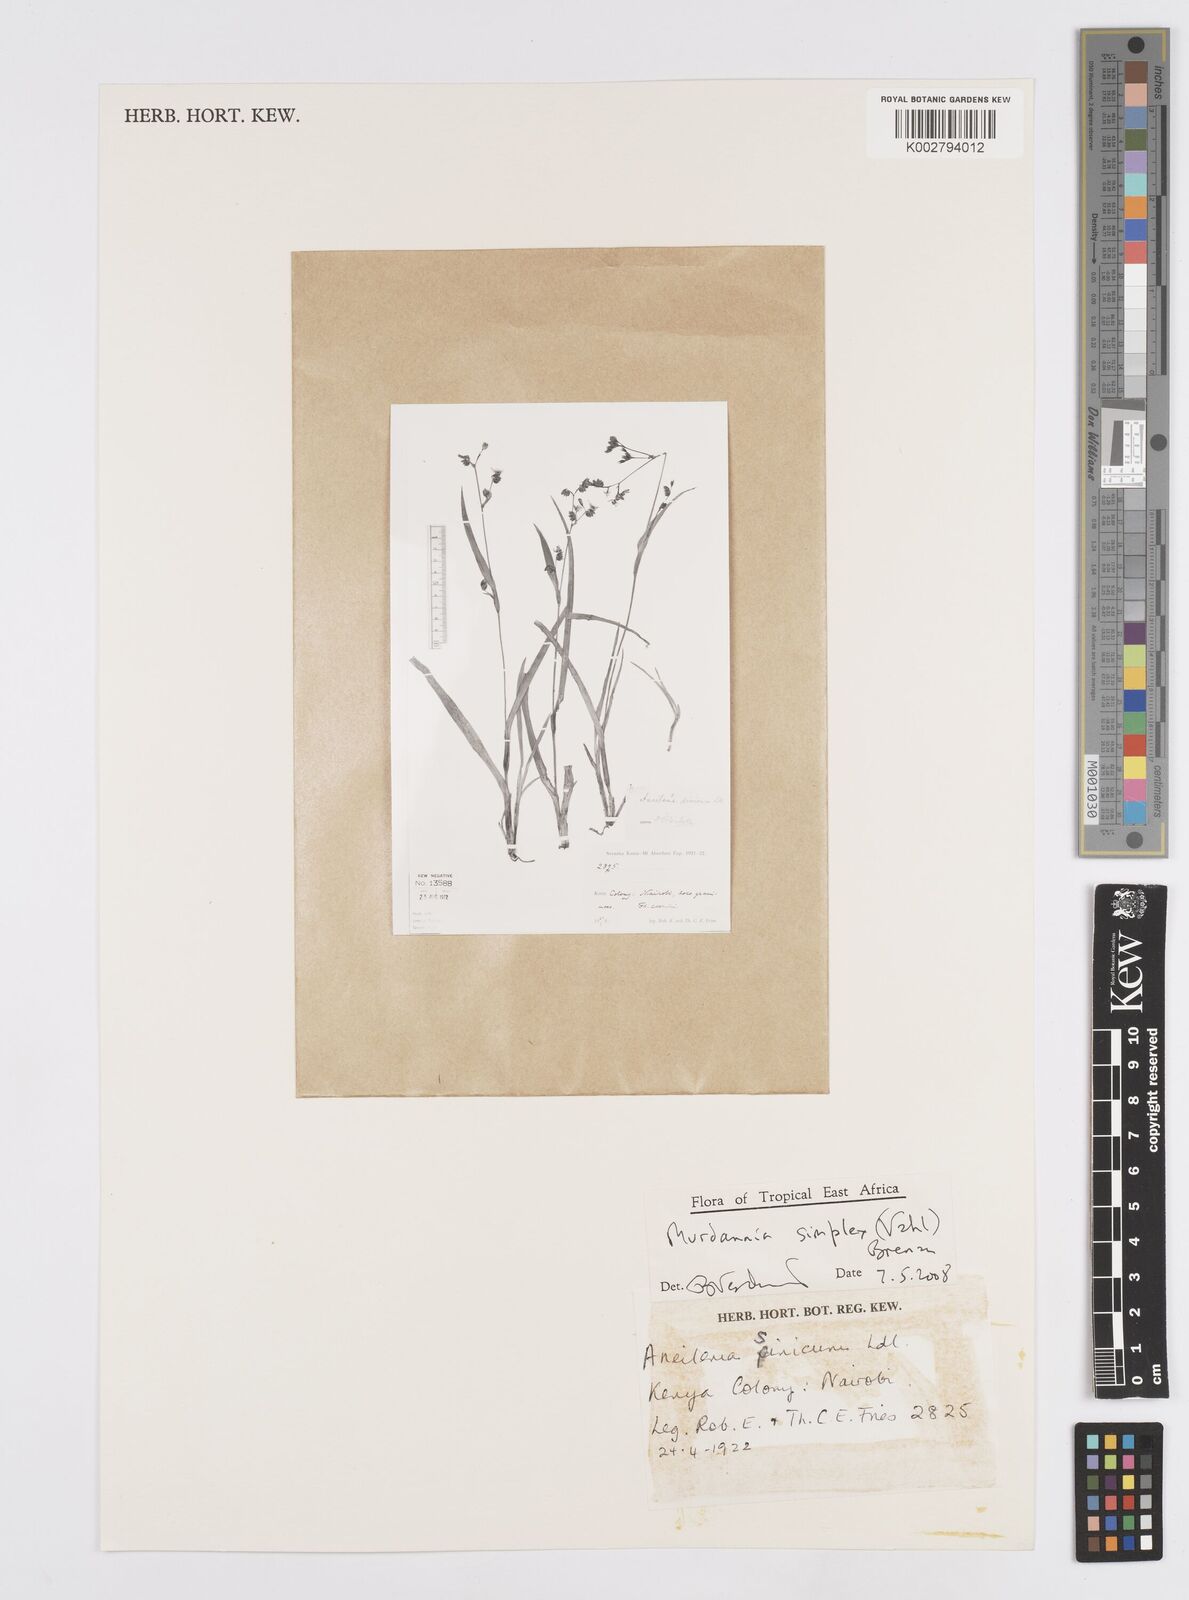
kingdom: Plantae
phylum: Tracheophyta
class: Liliopsida
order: Commelinales
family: Commelinaceae
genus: Murdannia
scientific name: Murdannia simplex
